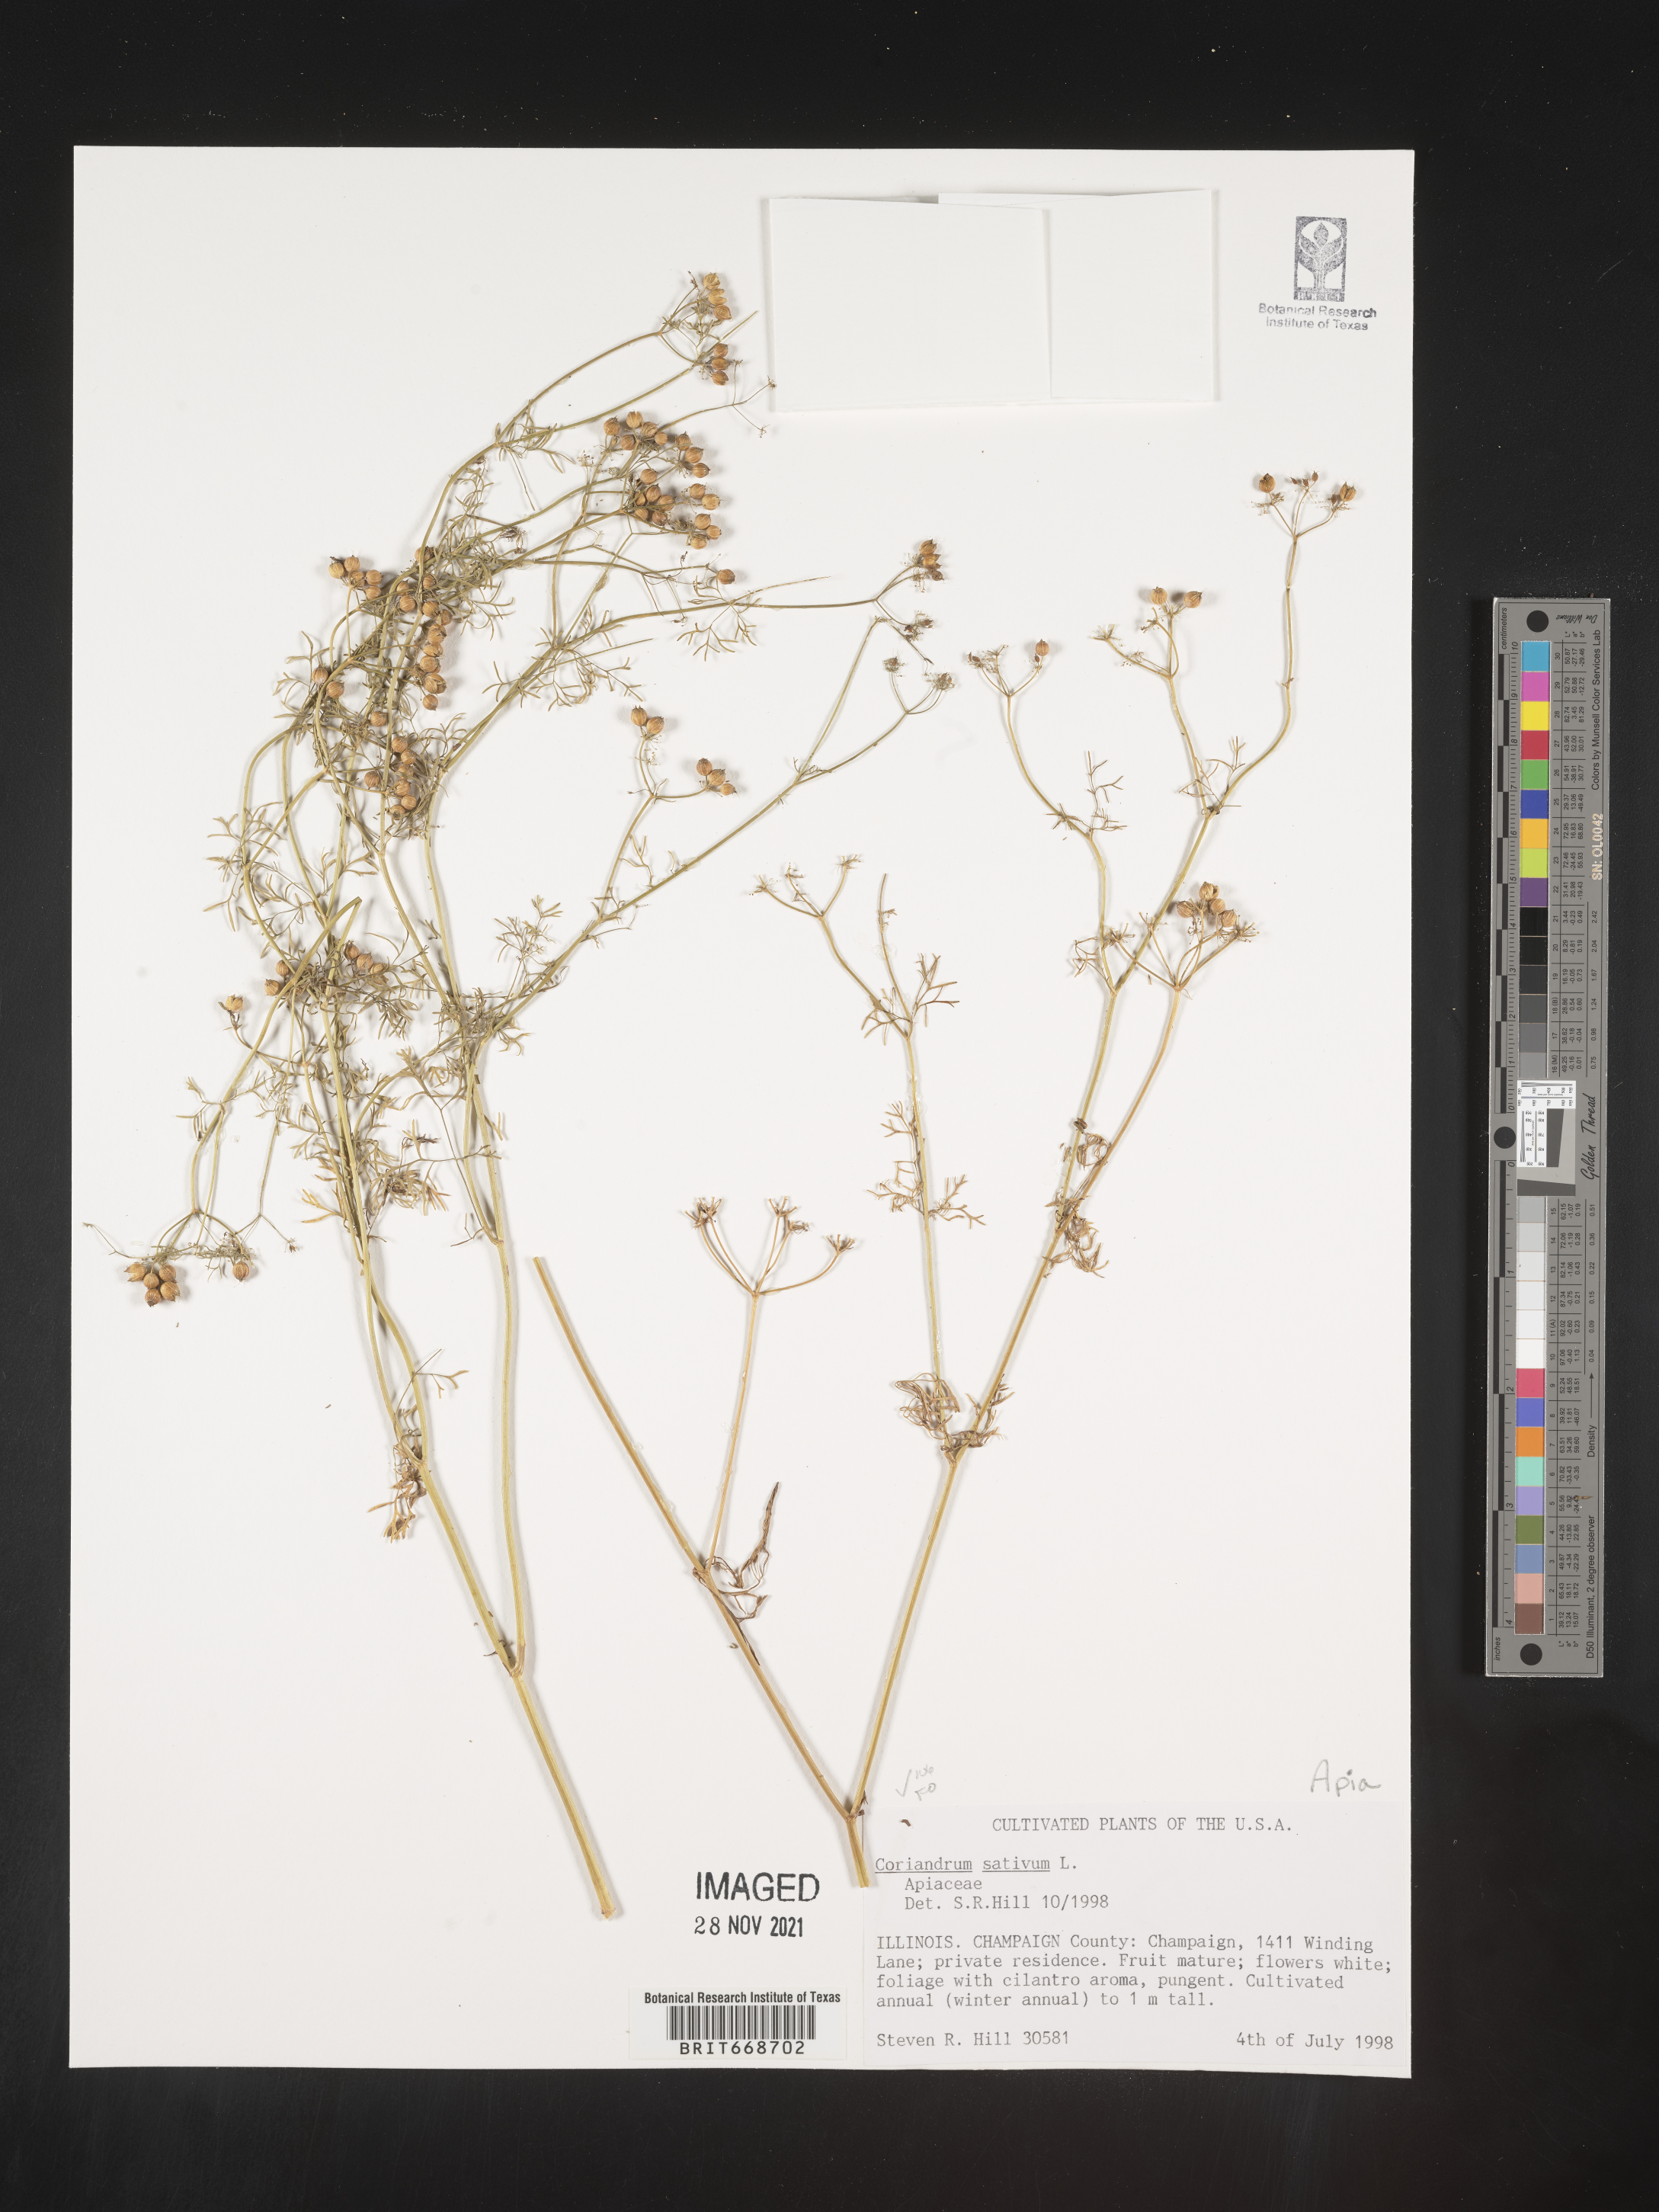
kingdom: Plantae
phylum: Tracheophyta
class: Magnoliopsida
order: Apiales
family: Apiaceae
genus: Coriandrum
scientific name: Coriandrum
